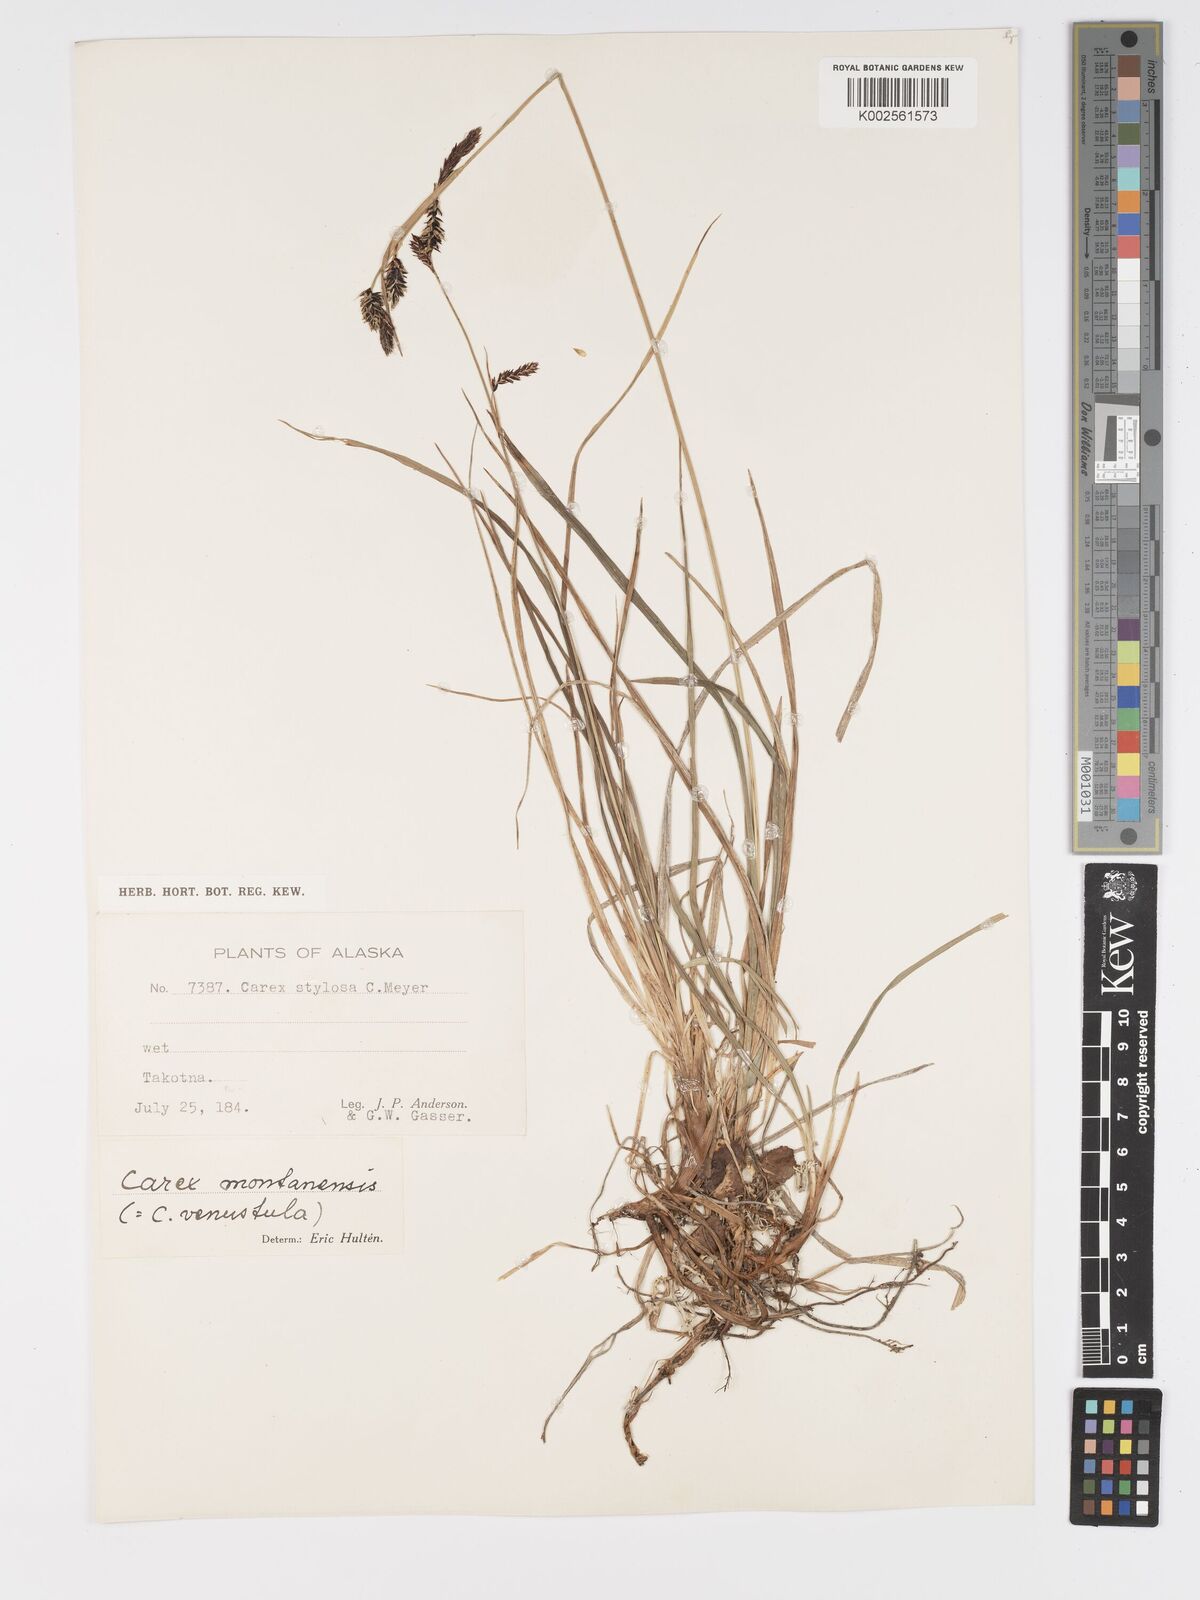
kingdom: Plantae
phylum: Tracheophyta
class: Liliopsida
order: Poales
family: Cyperaceae
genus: Carex
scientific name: Carex podocarpa
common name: Alpine sedge
